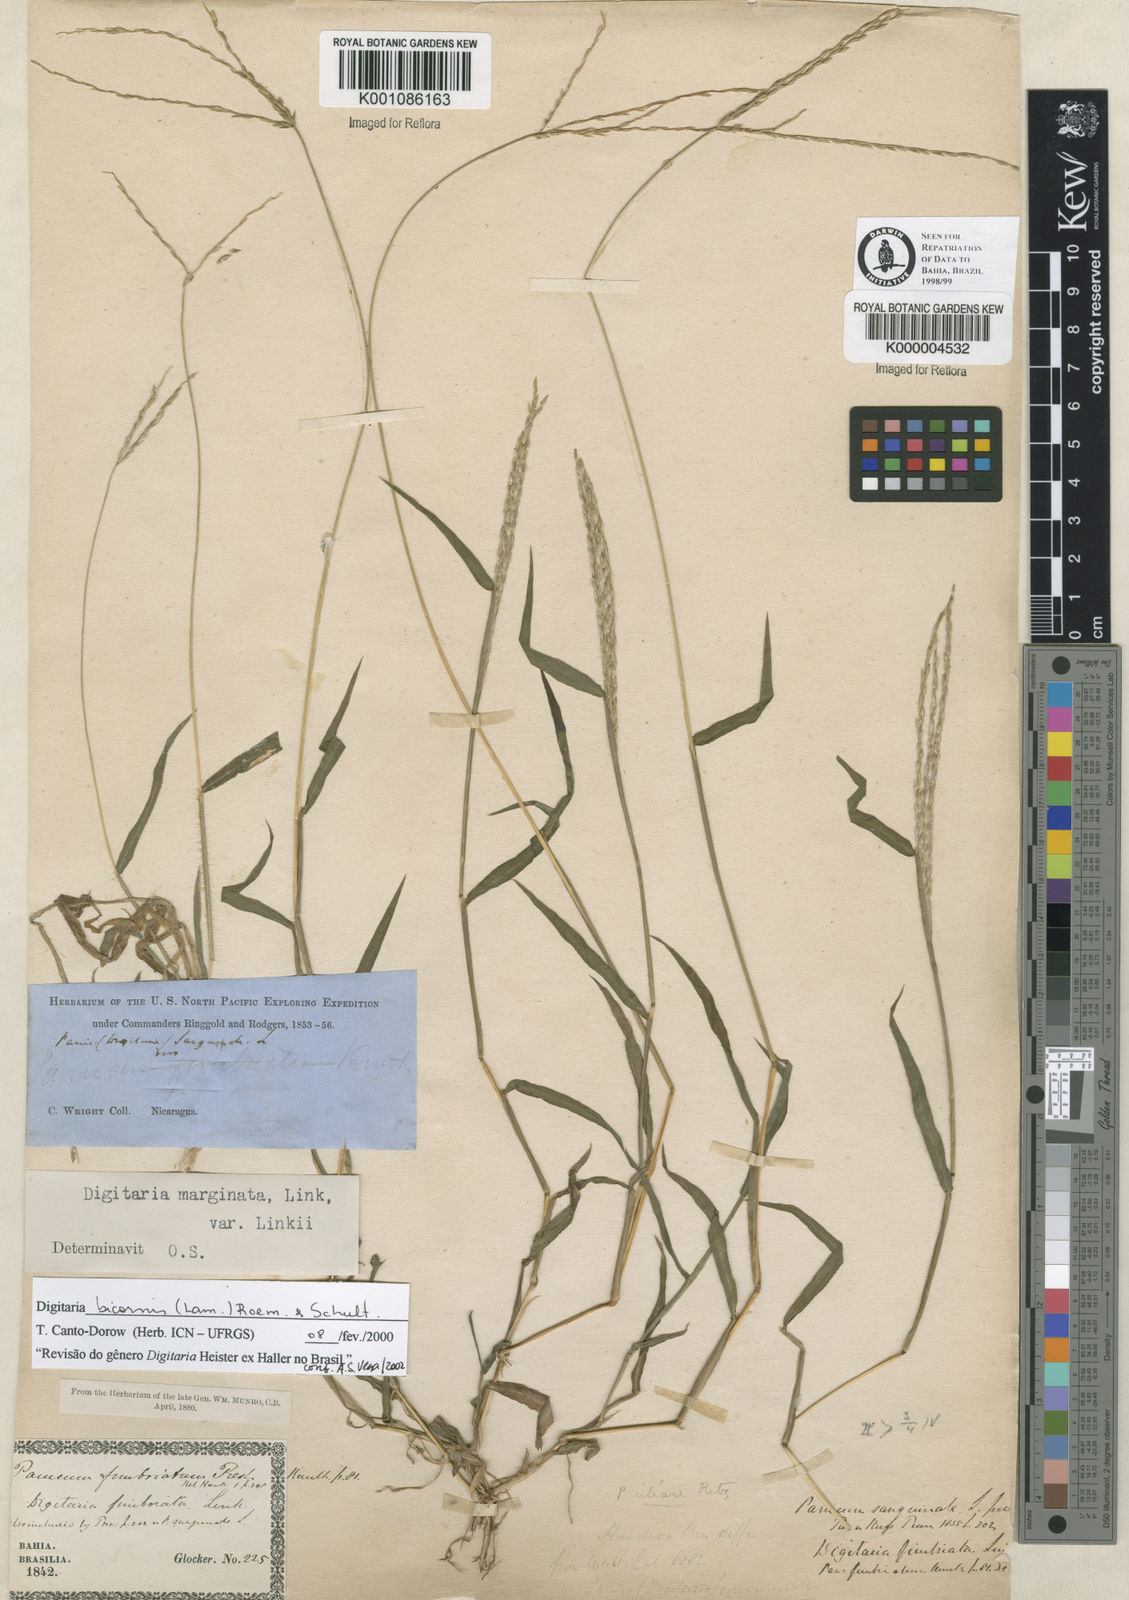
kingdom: Plantae
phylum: Tracheophyta
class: Liliopsida
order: Poales
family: Poaceae
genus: Digitaria
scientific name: Digitaria bicornis
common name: Asian crabgrass
